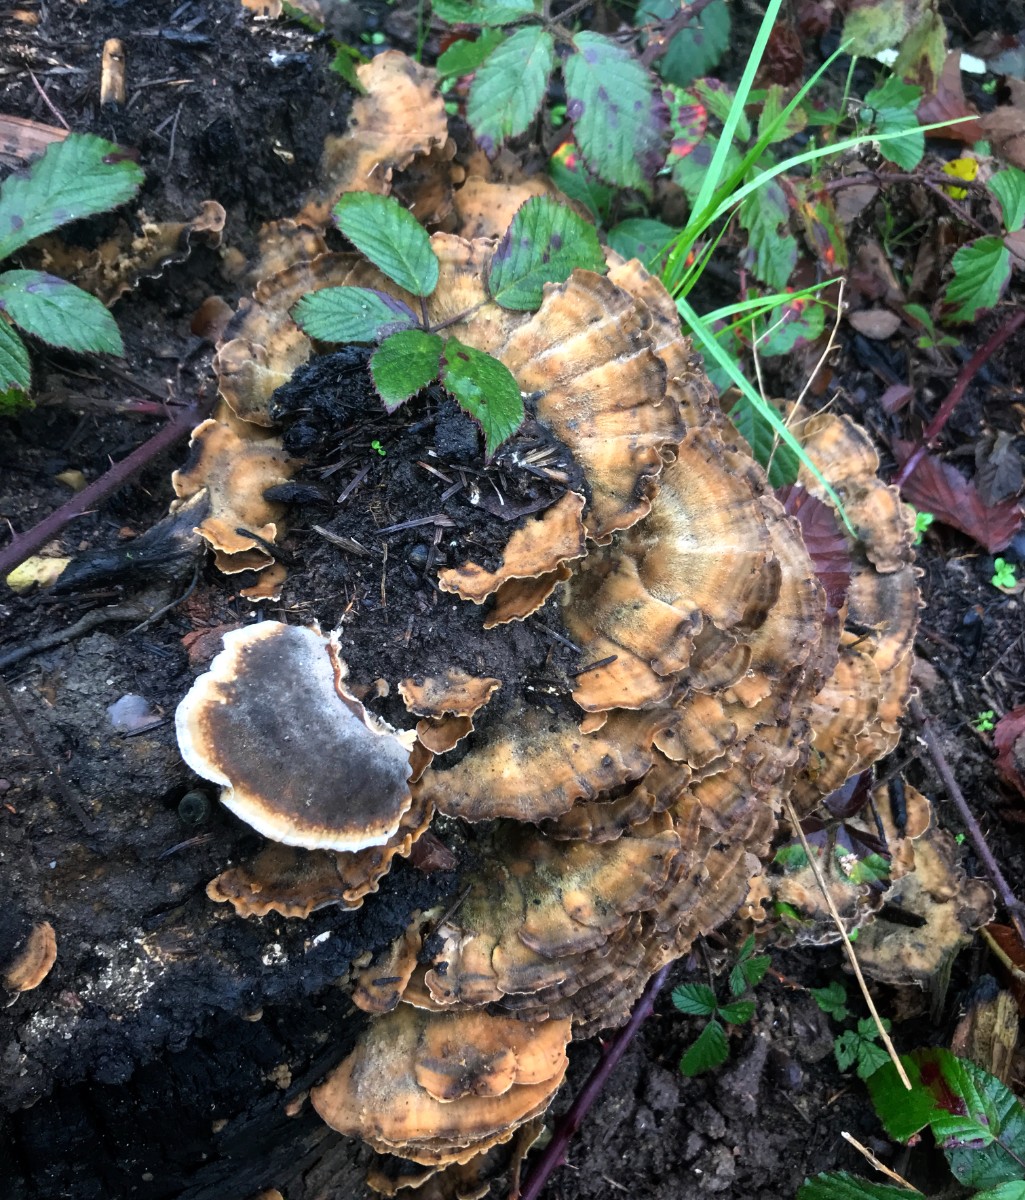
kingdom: Fungi
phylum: Basidiomycota
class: Agaricomycetes
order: Polyporales
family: Phanerochaetaceae
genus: Bjerkandera
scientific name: Bjerkandera adusta
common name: sveden sodporesvamp
